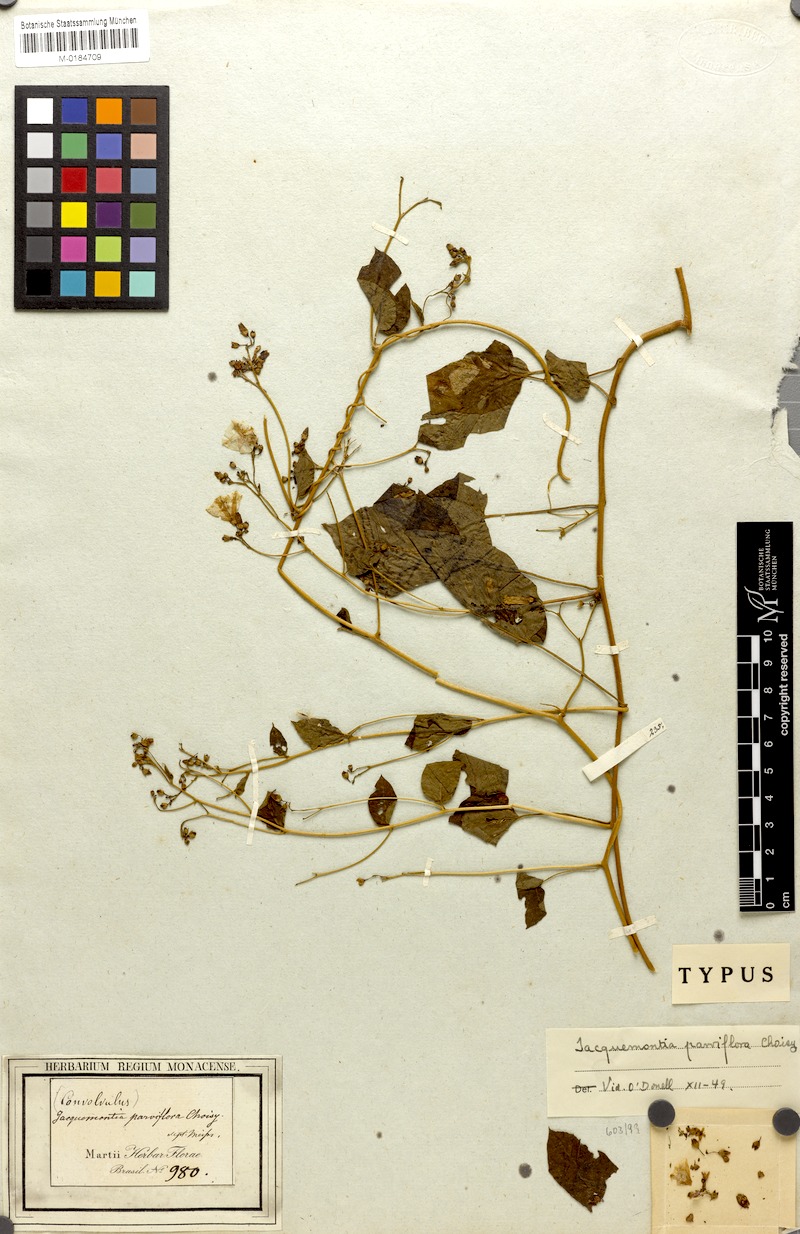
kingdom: Plantae
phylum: Tracheophyta
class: Magnoliopsida
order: Solanales
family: Convolvulaceae
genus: Jacquemontia
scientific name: Jacquemontia parviflora
